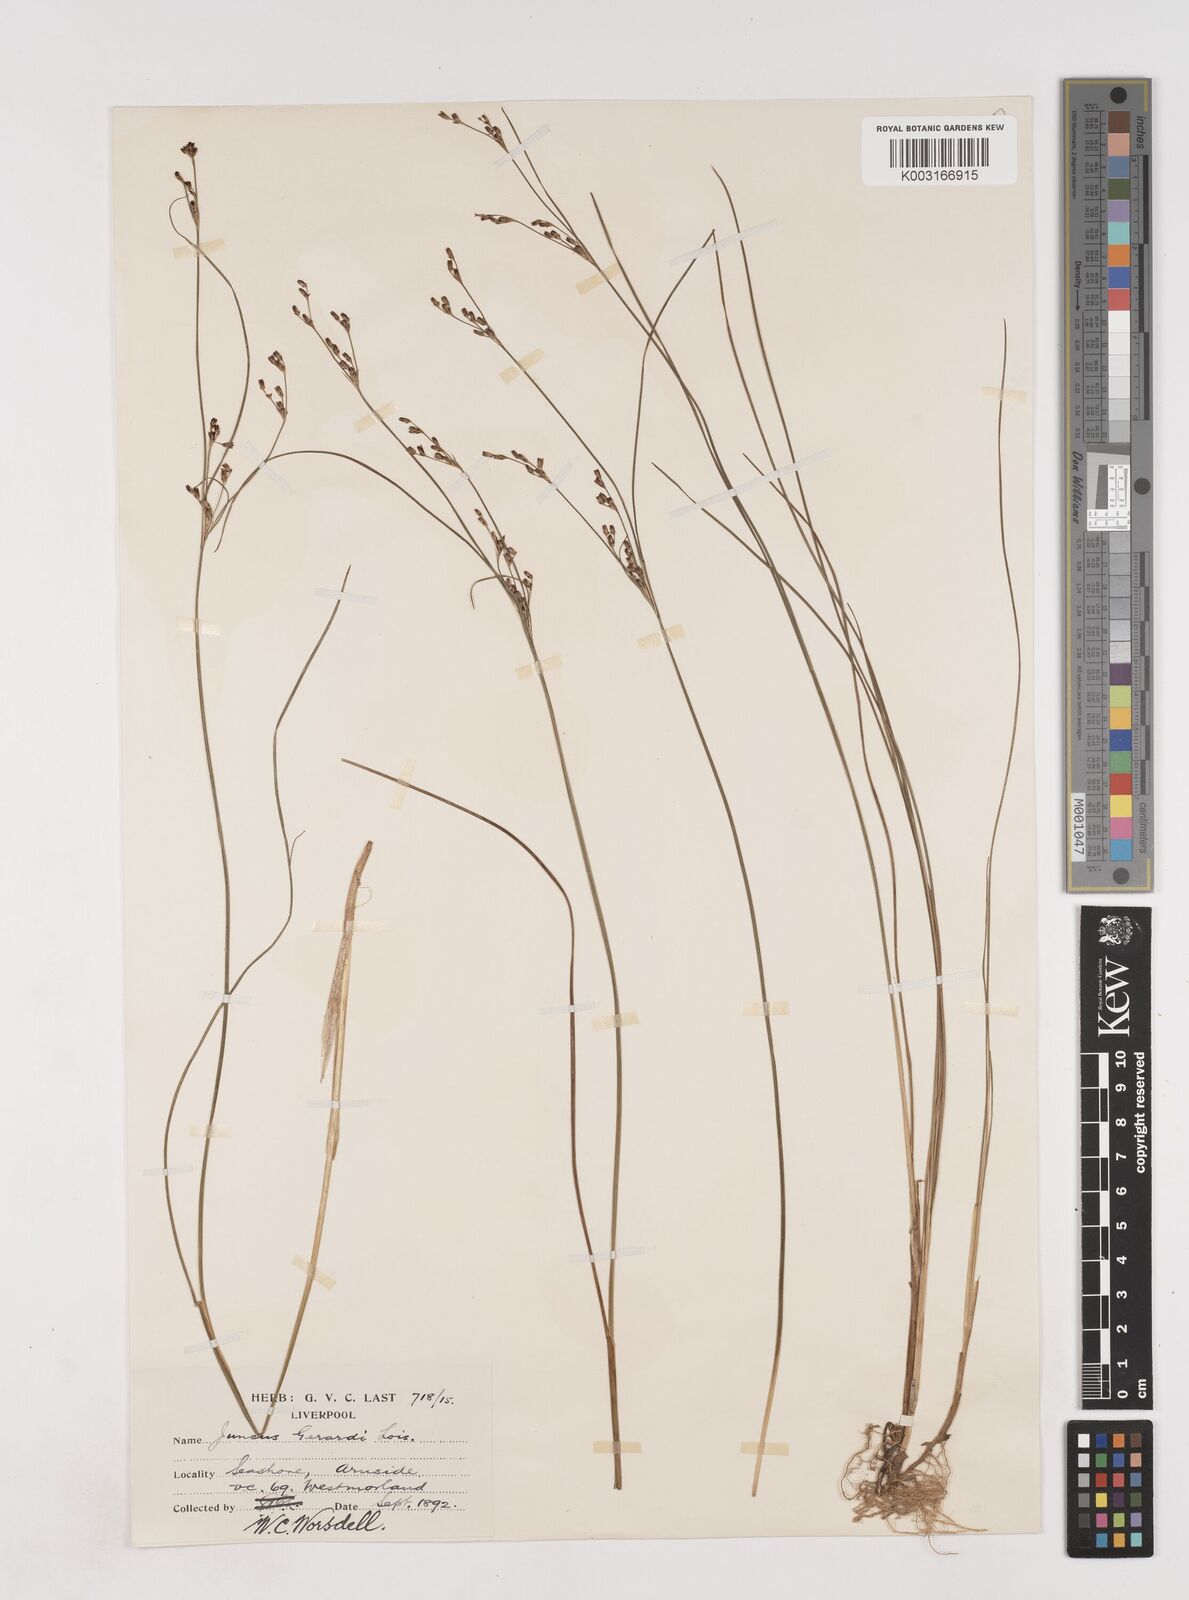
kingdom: Plantae
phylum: Tracheophyta
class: Liliopsida
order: Poales
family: Juncaceae
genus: Juncus
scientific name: Juncus gerardi
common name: Saltmarsh rush
